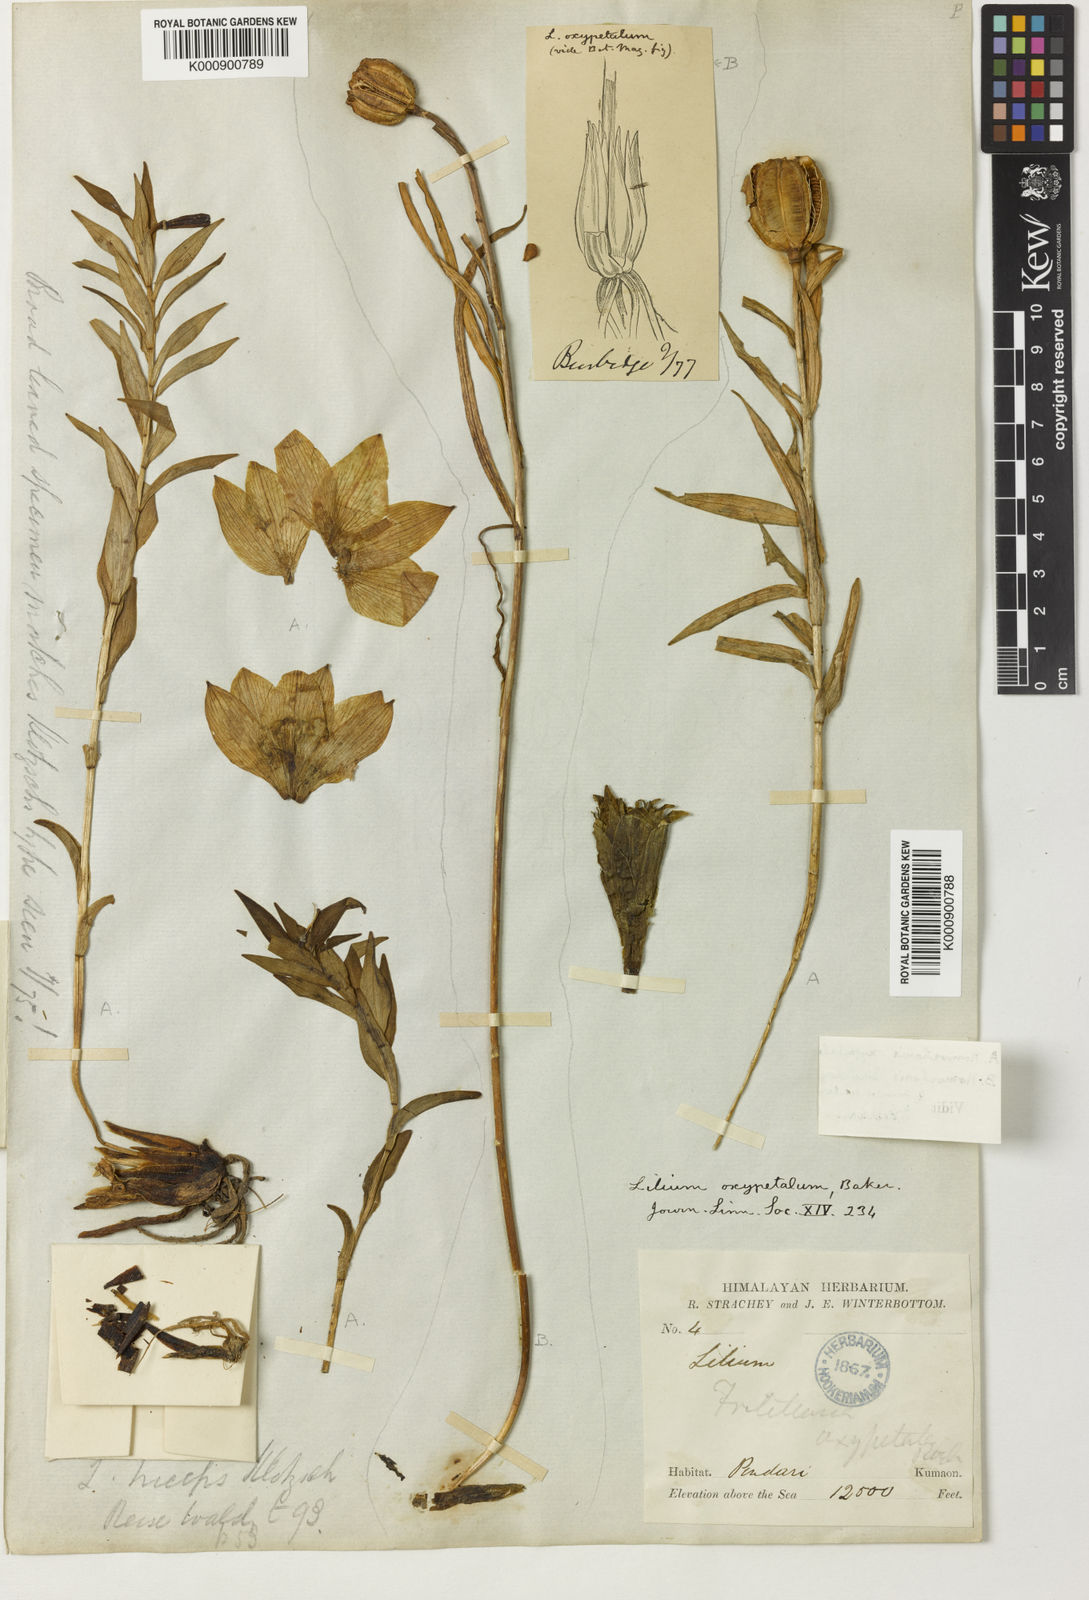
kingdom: Plantae
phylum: Tracheophyta
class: Liliopsida
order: Liliales
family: Liliaceae
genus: Lilium
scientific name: Lilium oxypetalum
